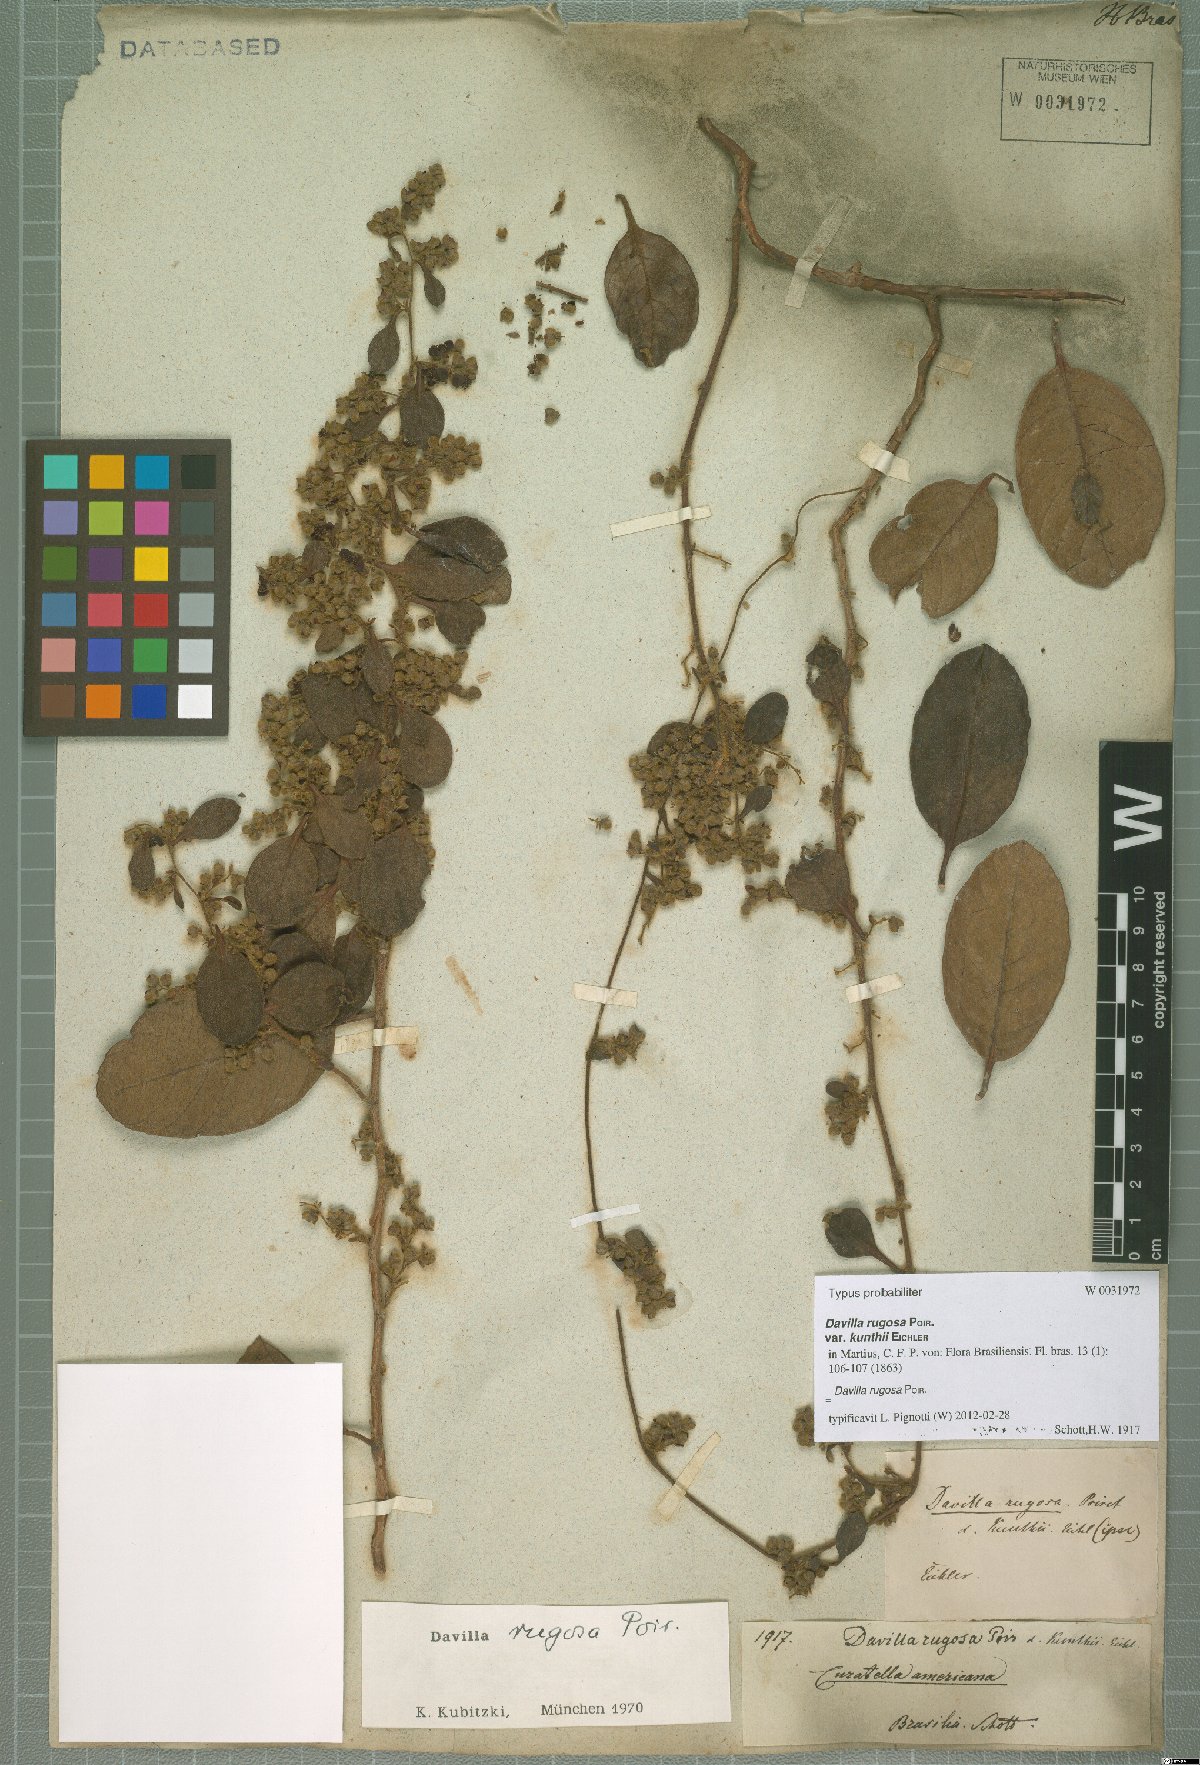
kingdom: Plantae
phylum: Tracheophyta
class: Magnoliopsida
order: Dilleniales
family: Dilleniaceae
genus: Davilla
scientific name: Davilla rugosa
